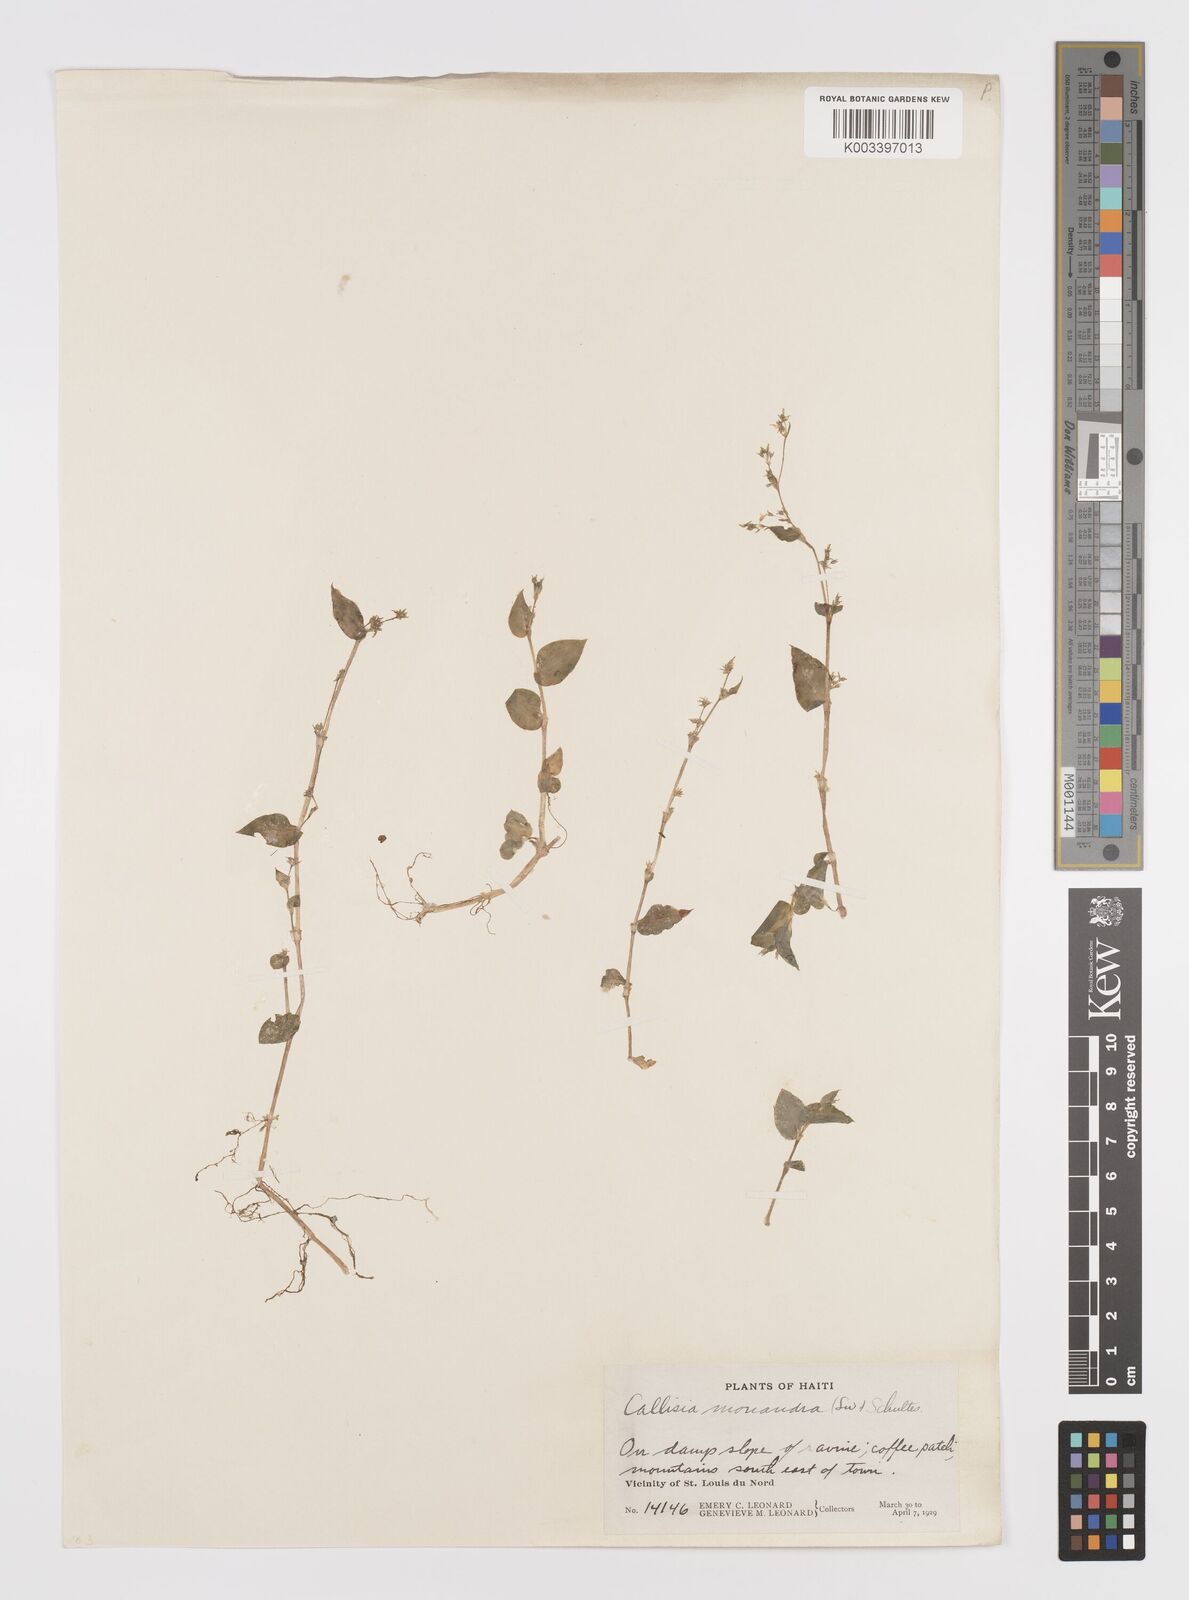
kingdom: Plantae
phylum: Tracheophyta
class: Liliopsida
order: Commelinales
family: Commelinaceae
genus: Callisia
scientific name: Callisia monandra
